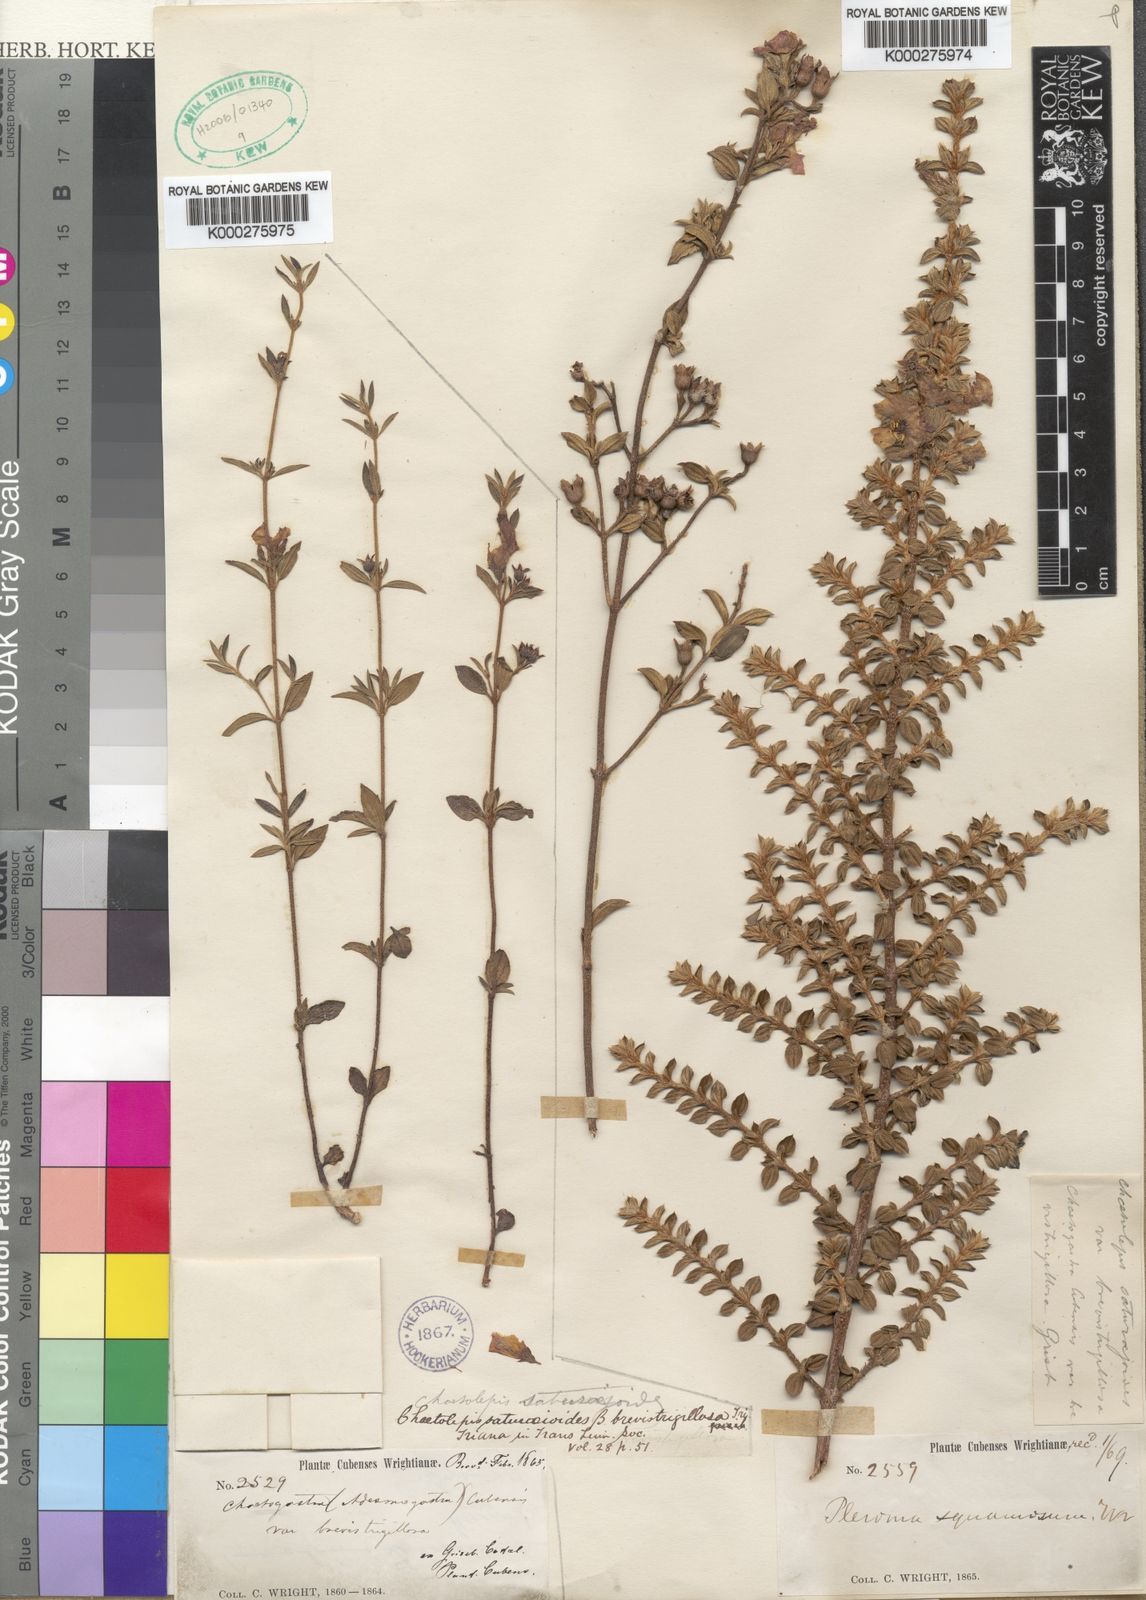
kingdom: Plantae
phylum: Tracheophyta
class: Magnoliopsida
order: Myrtales
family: Melastomataceae
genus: Tibouchina
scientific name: Tibouchina
